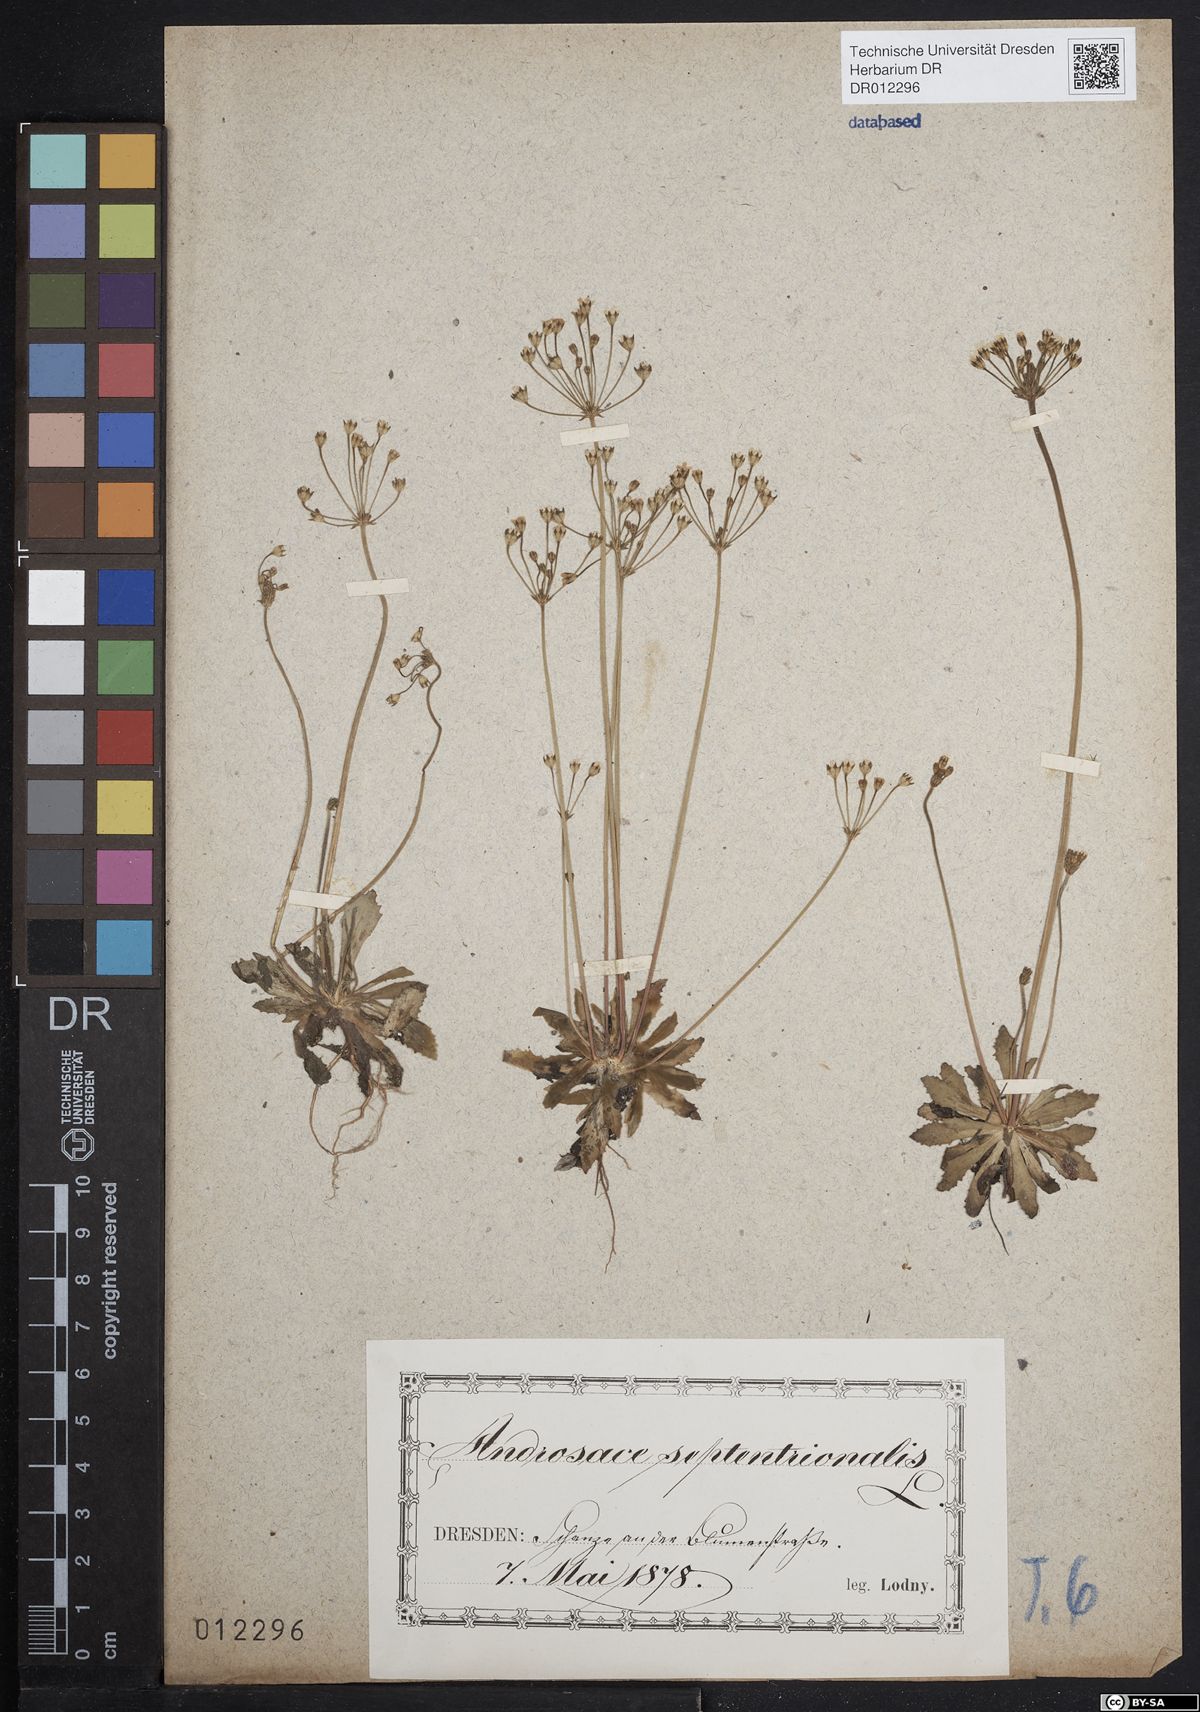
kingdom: Plantae
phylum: Tracheophyta
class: Magnoliopsida
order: Ericales
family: Primulaceae
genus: Androsace
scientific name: Androsace septentrionalis
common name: Hairy northern fairy-candelabra
